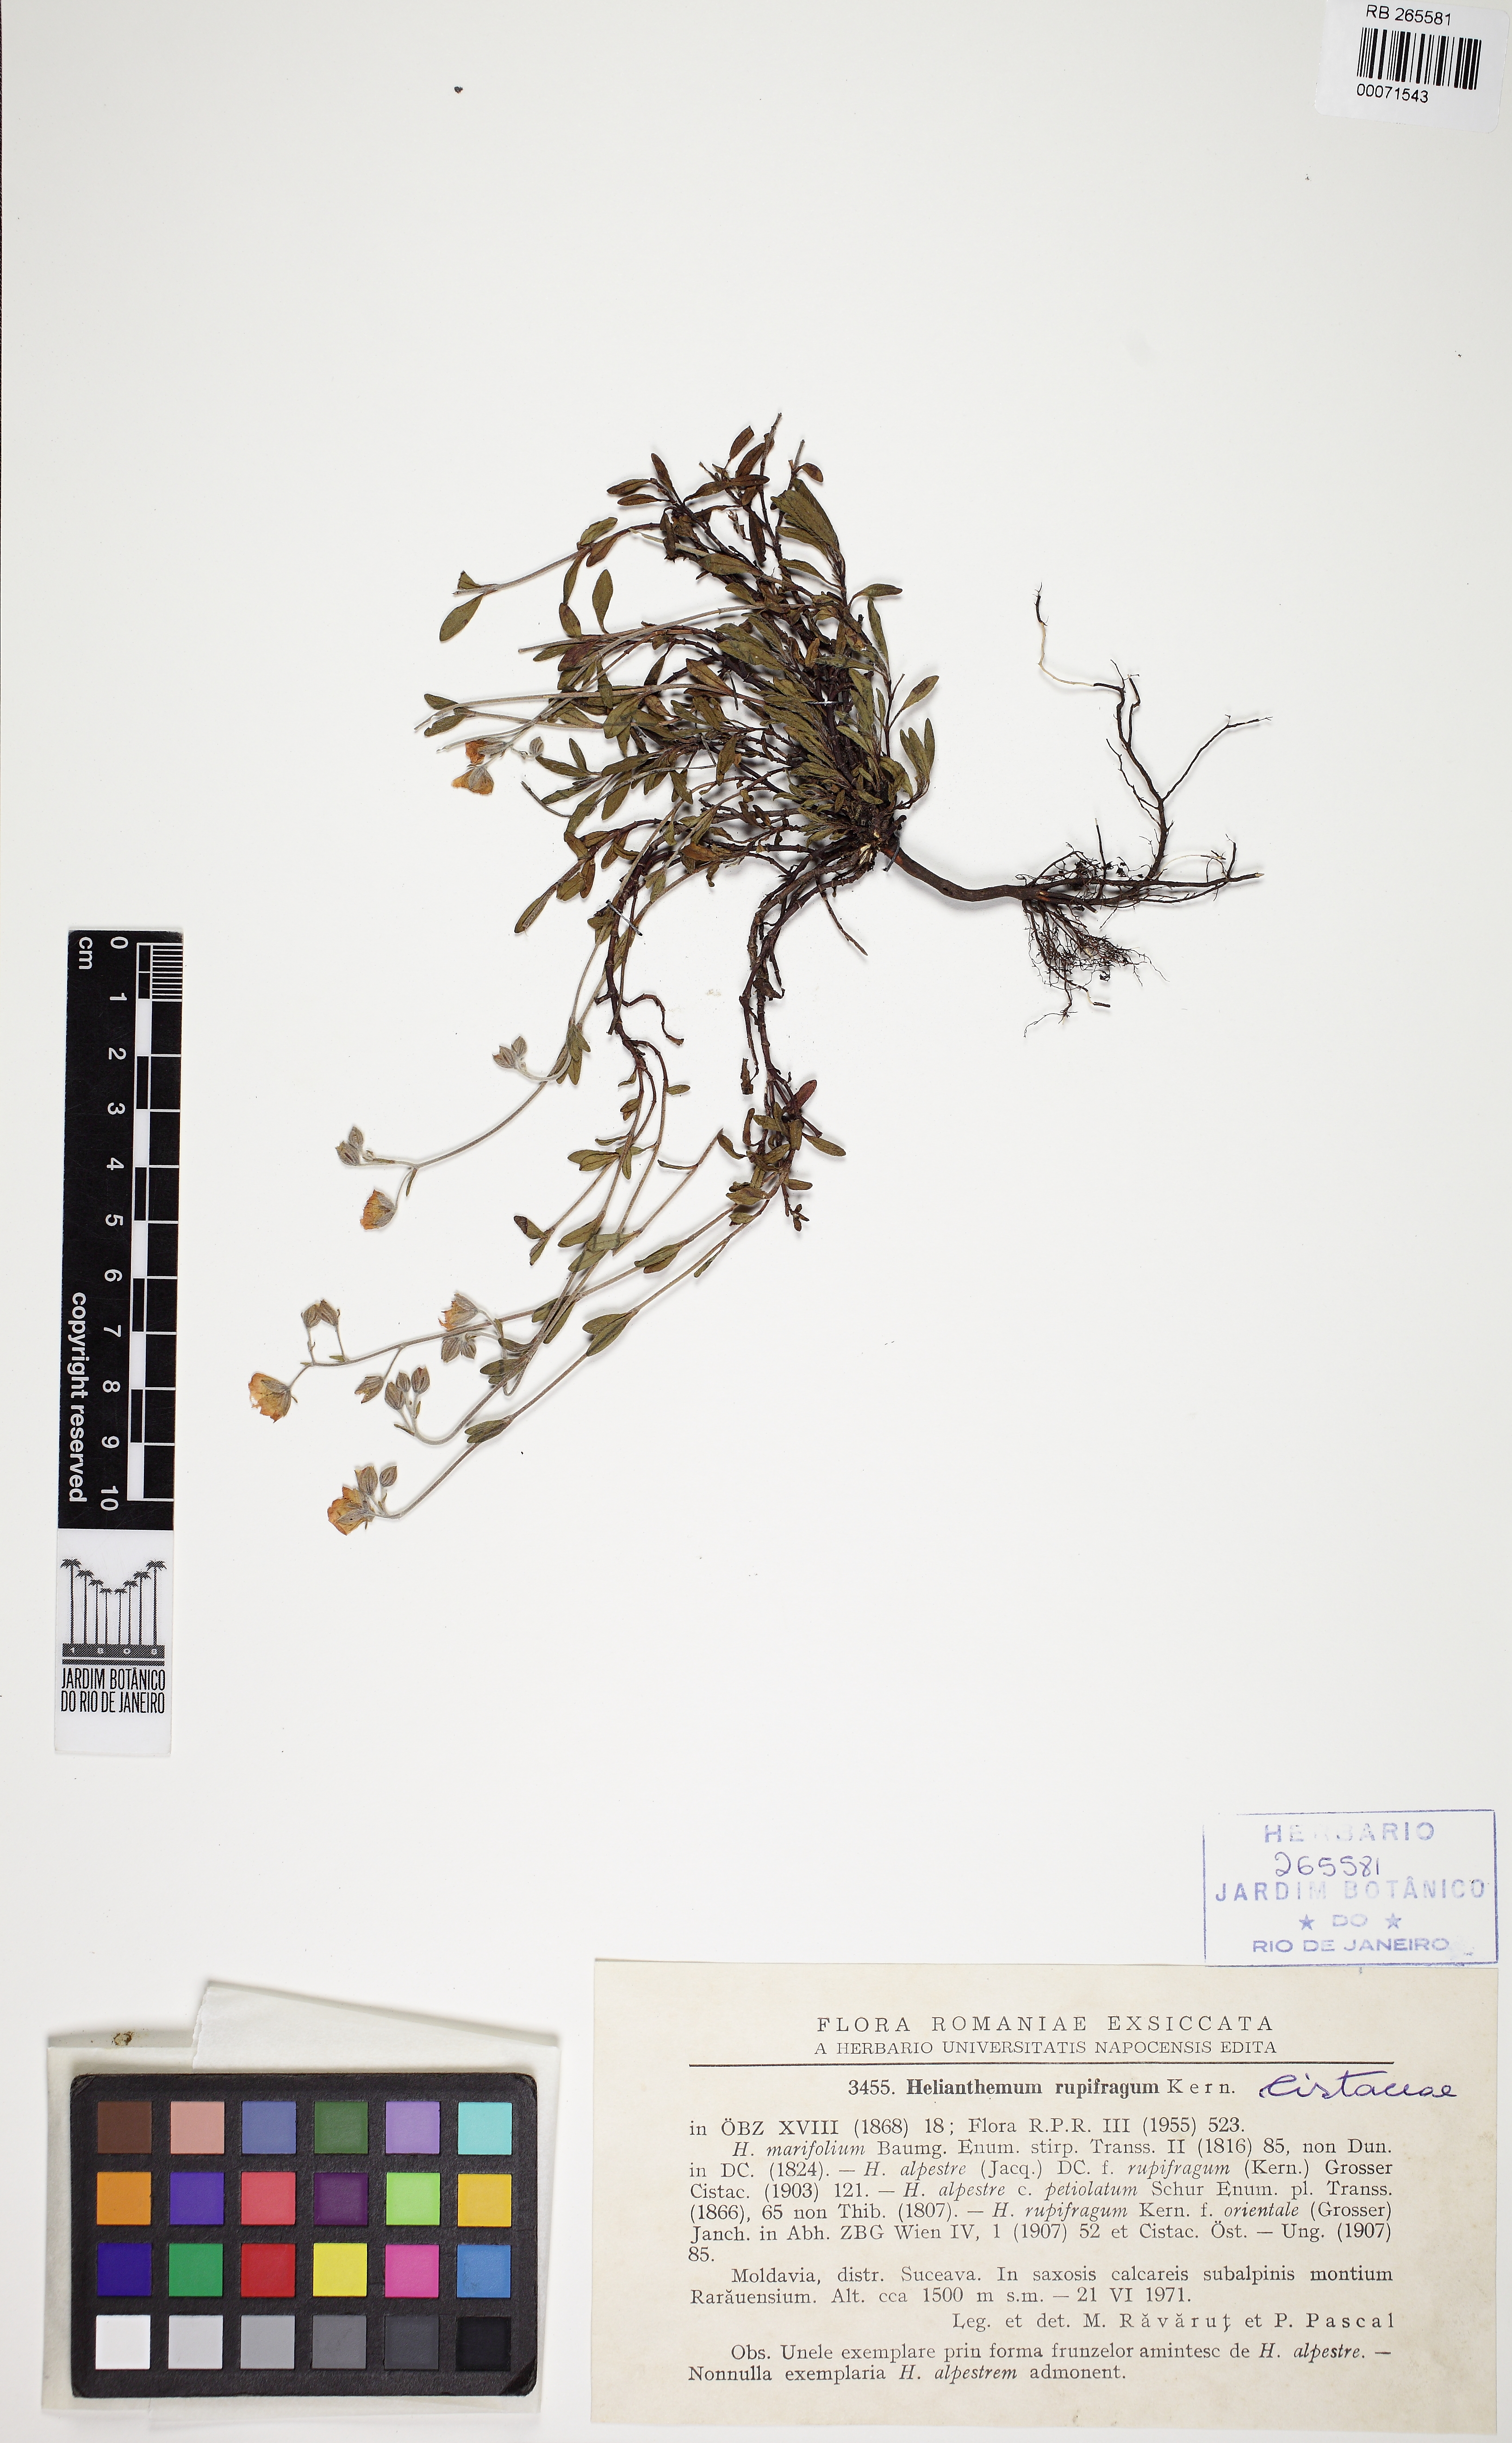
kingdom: Plantae
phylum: Tracheophyta
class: Magnoliopsida
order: Malvales
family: Cistaceae
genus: Helianthemum
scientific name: Helianthemum rupifragum
